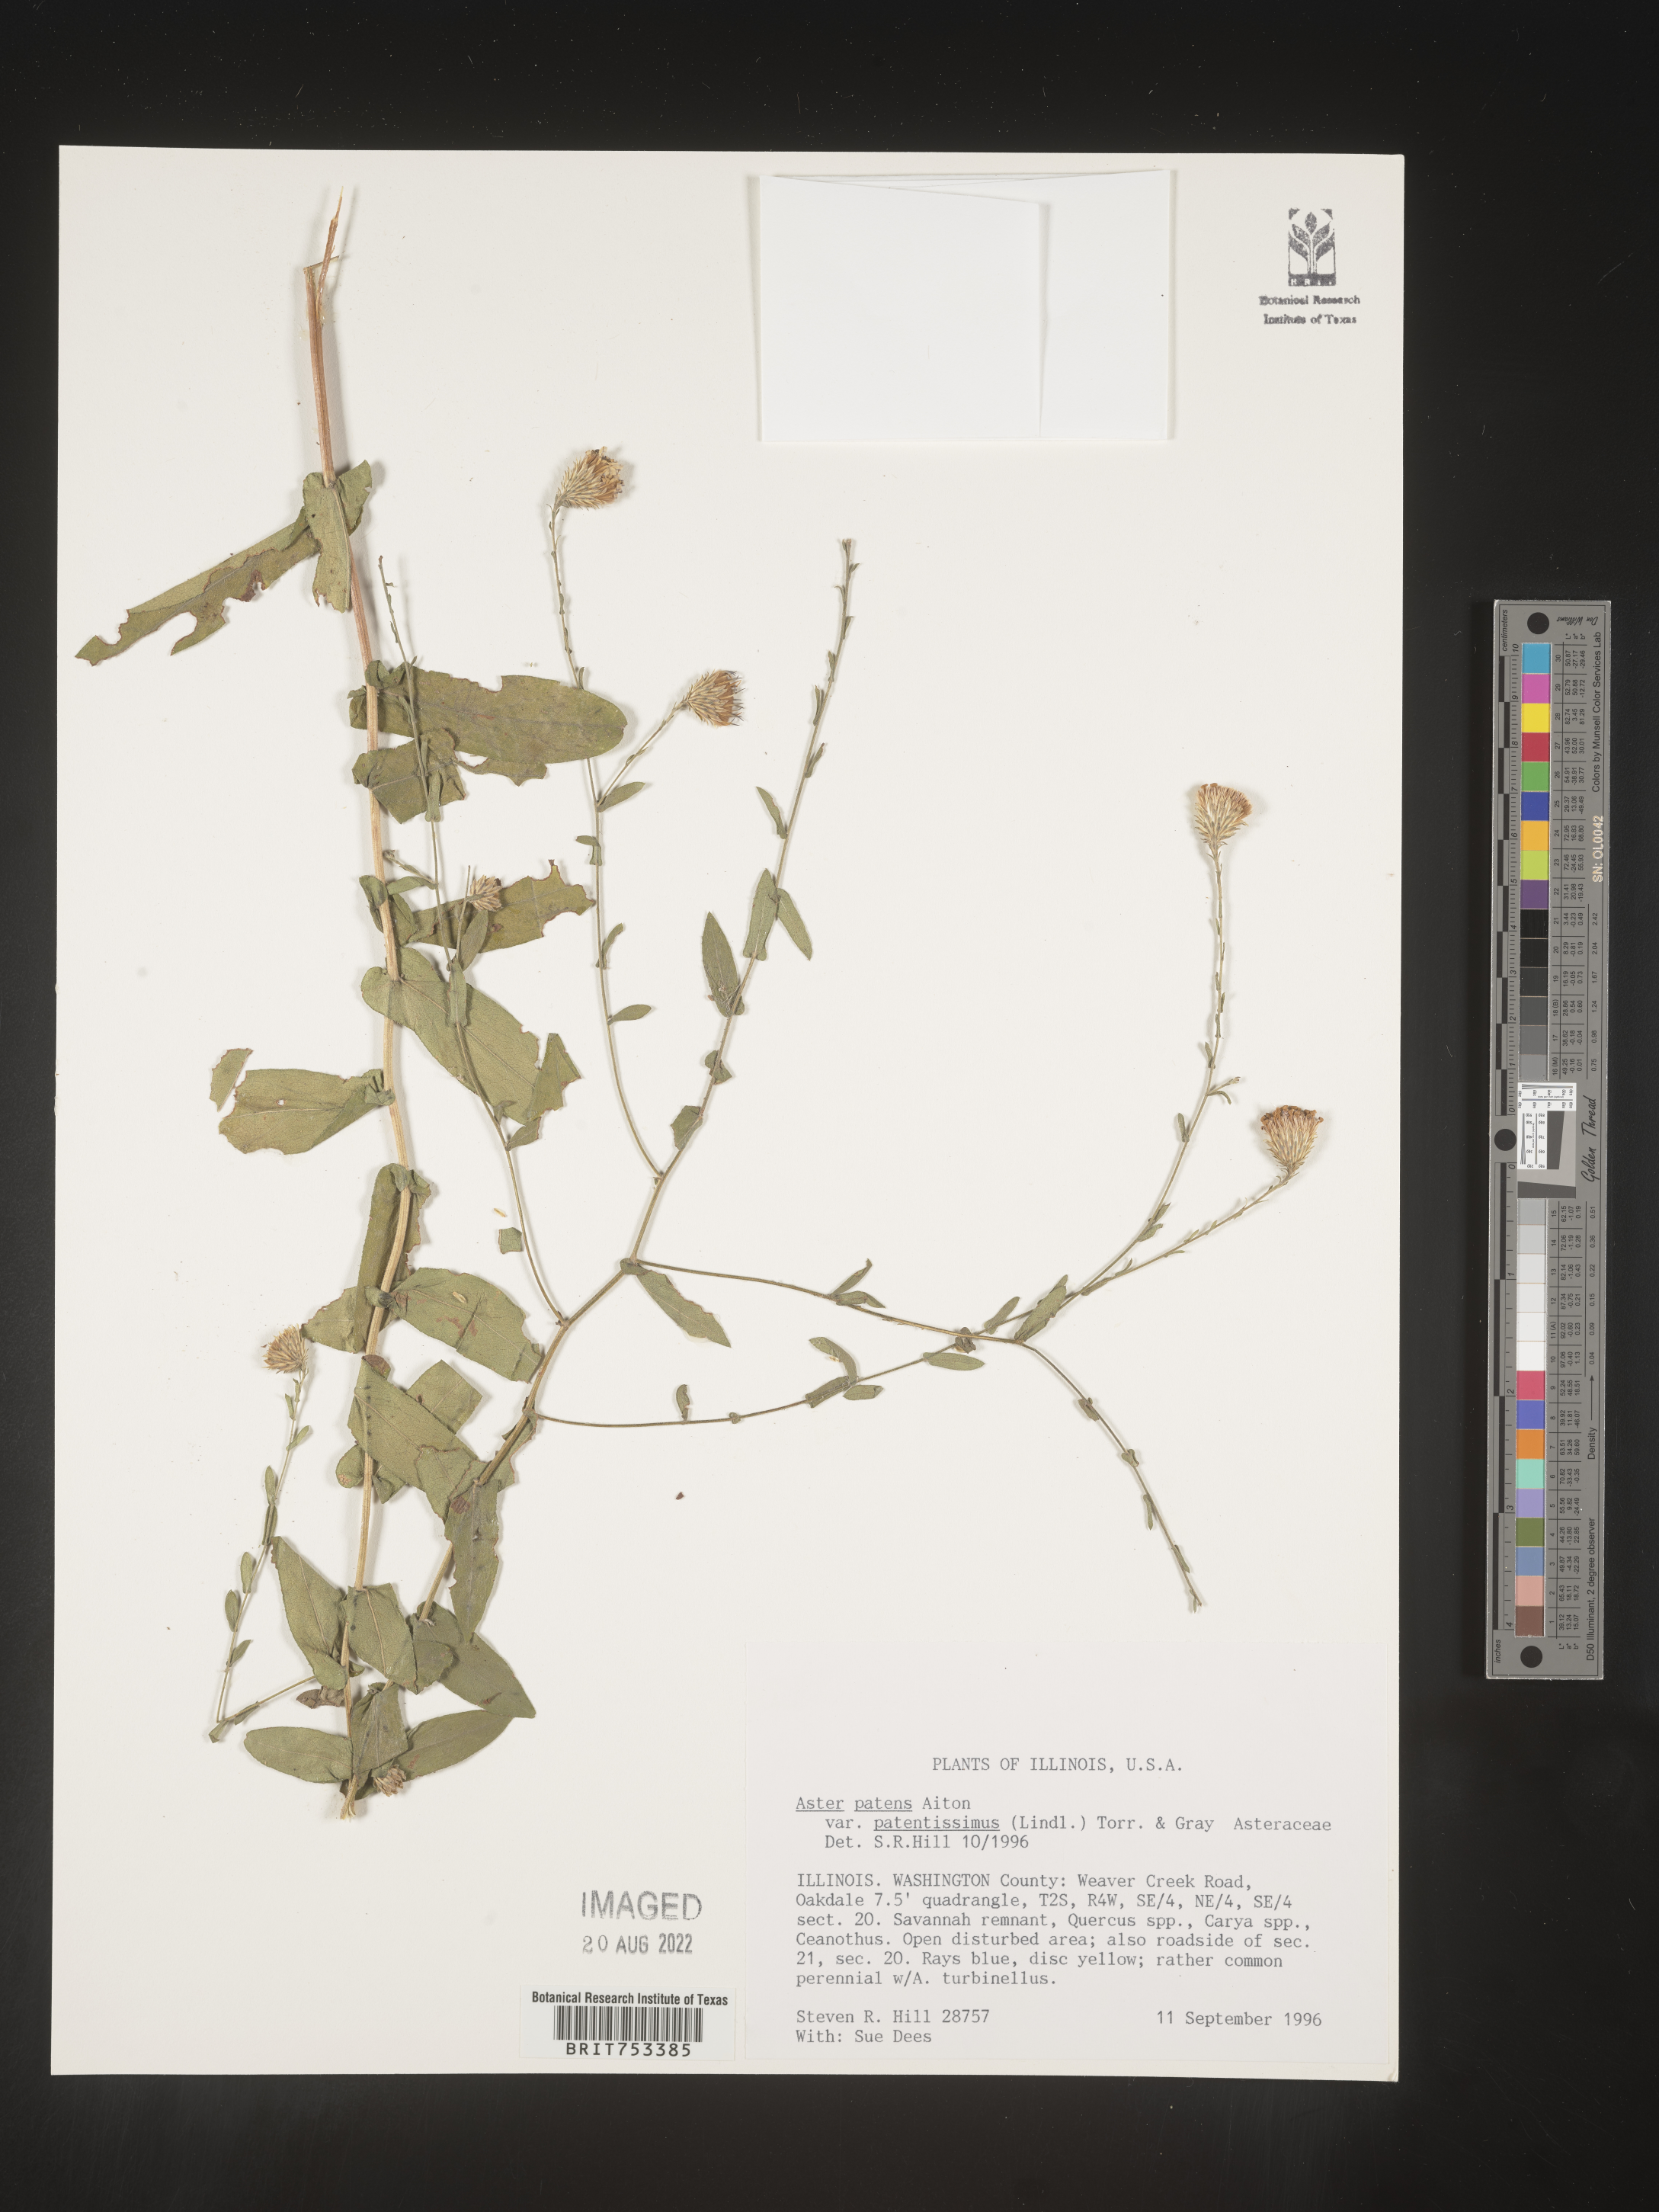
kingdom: Plantae
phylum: Tracheophyta
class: Magnoliopsida
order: Asterales
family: Asteraceae
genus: Symphyotrichum
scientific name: Symphyotrichum patens
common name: Late purple aster
